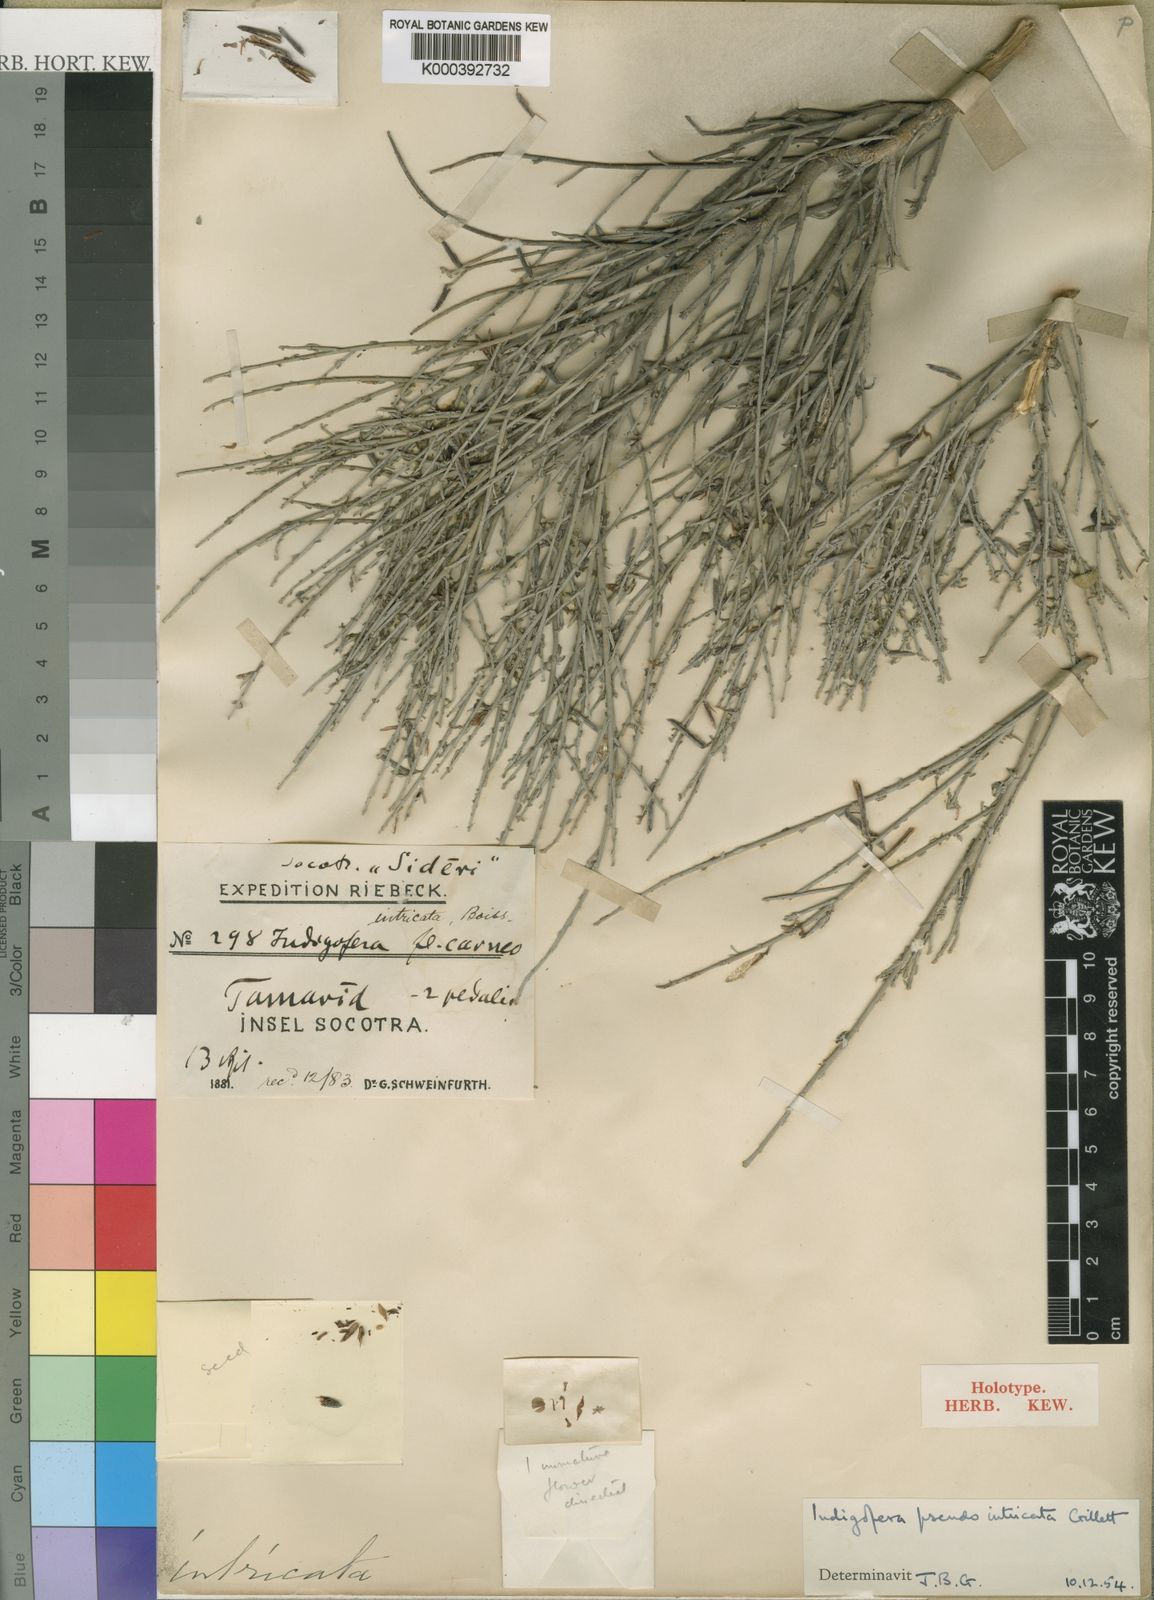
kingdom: Plantae
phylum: Tracheophyta
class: Magnoliopsida
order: Fabales
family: Fabaceae
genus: Indigofera
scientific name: Indigofera pseudointricata
